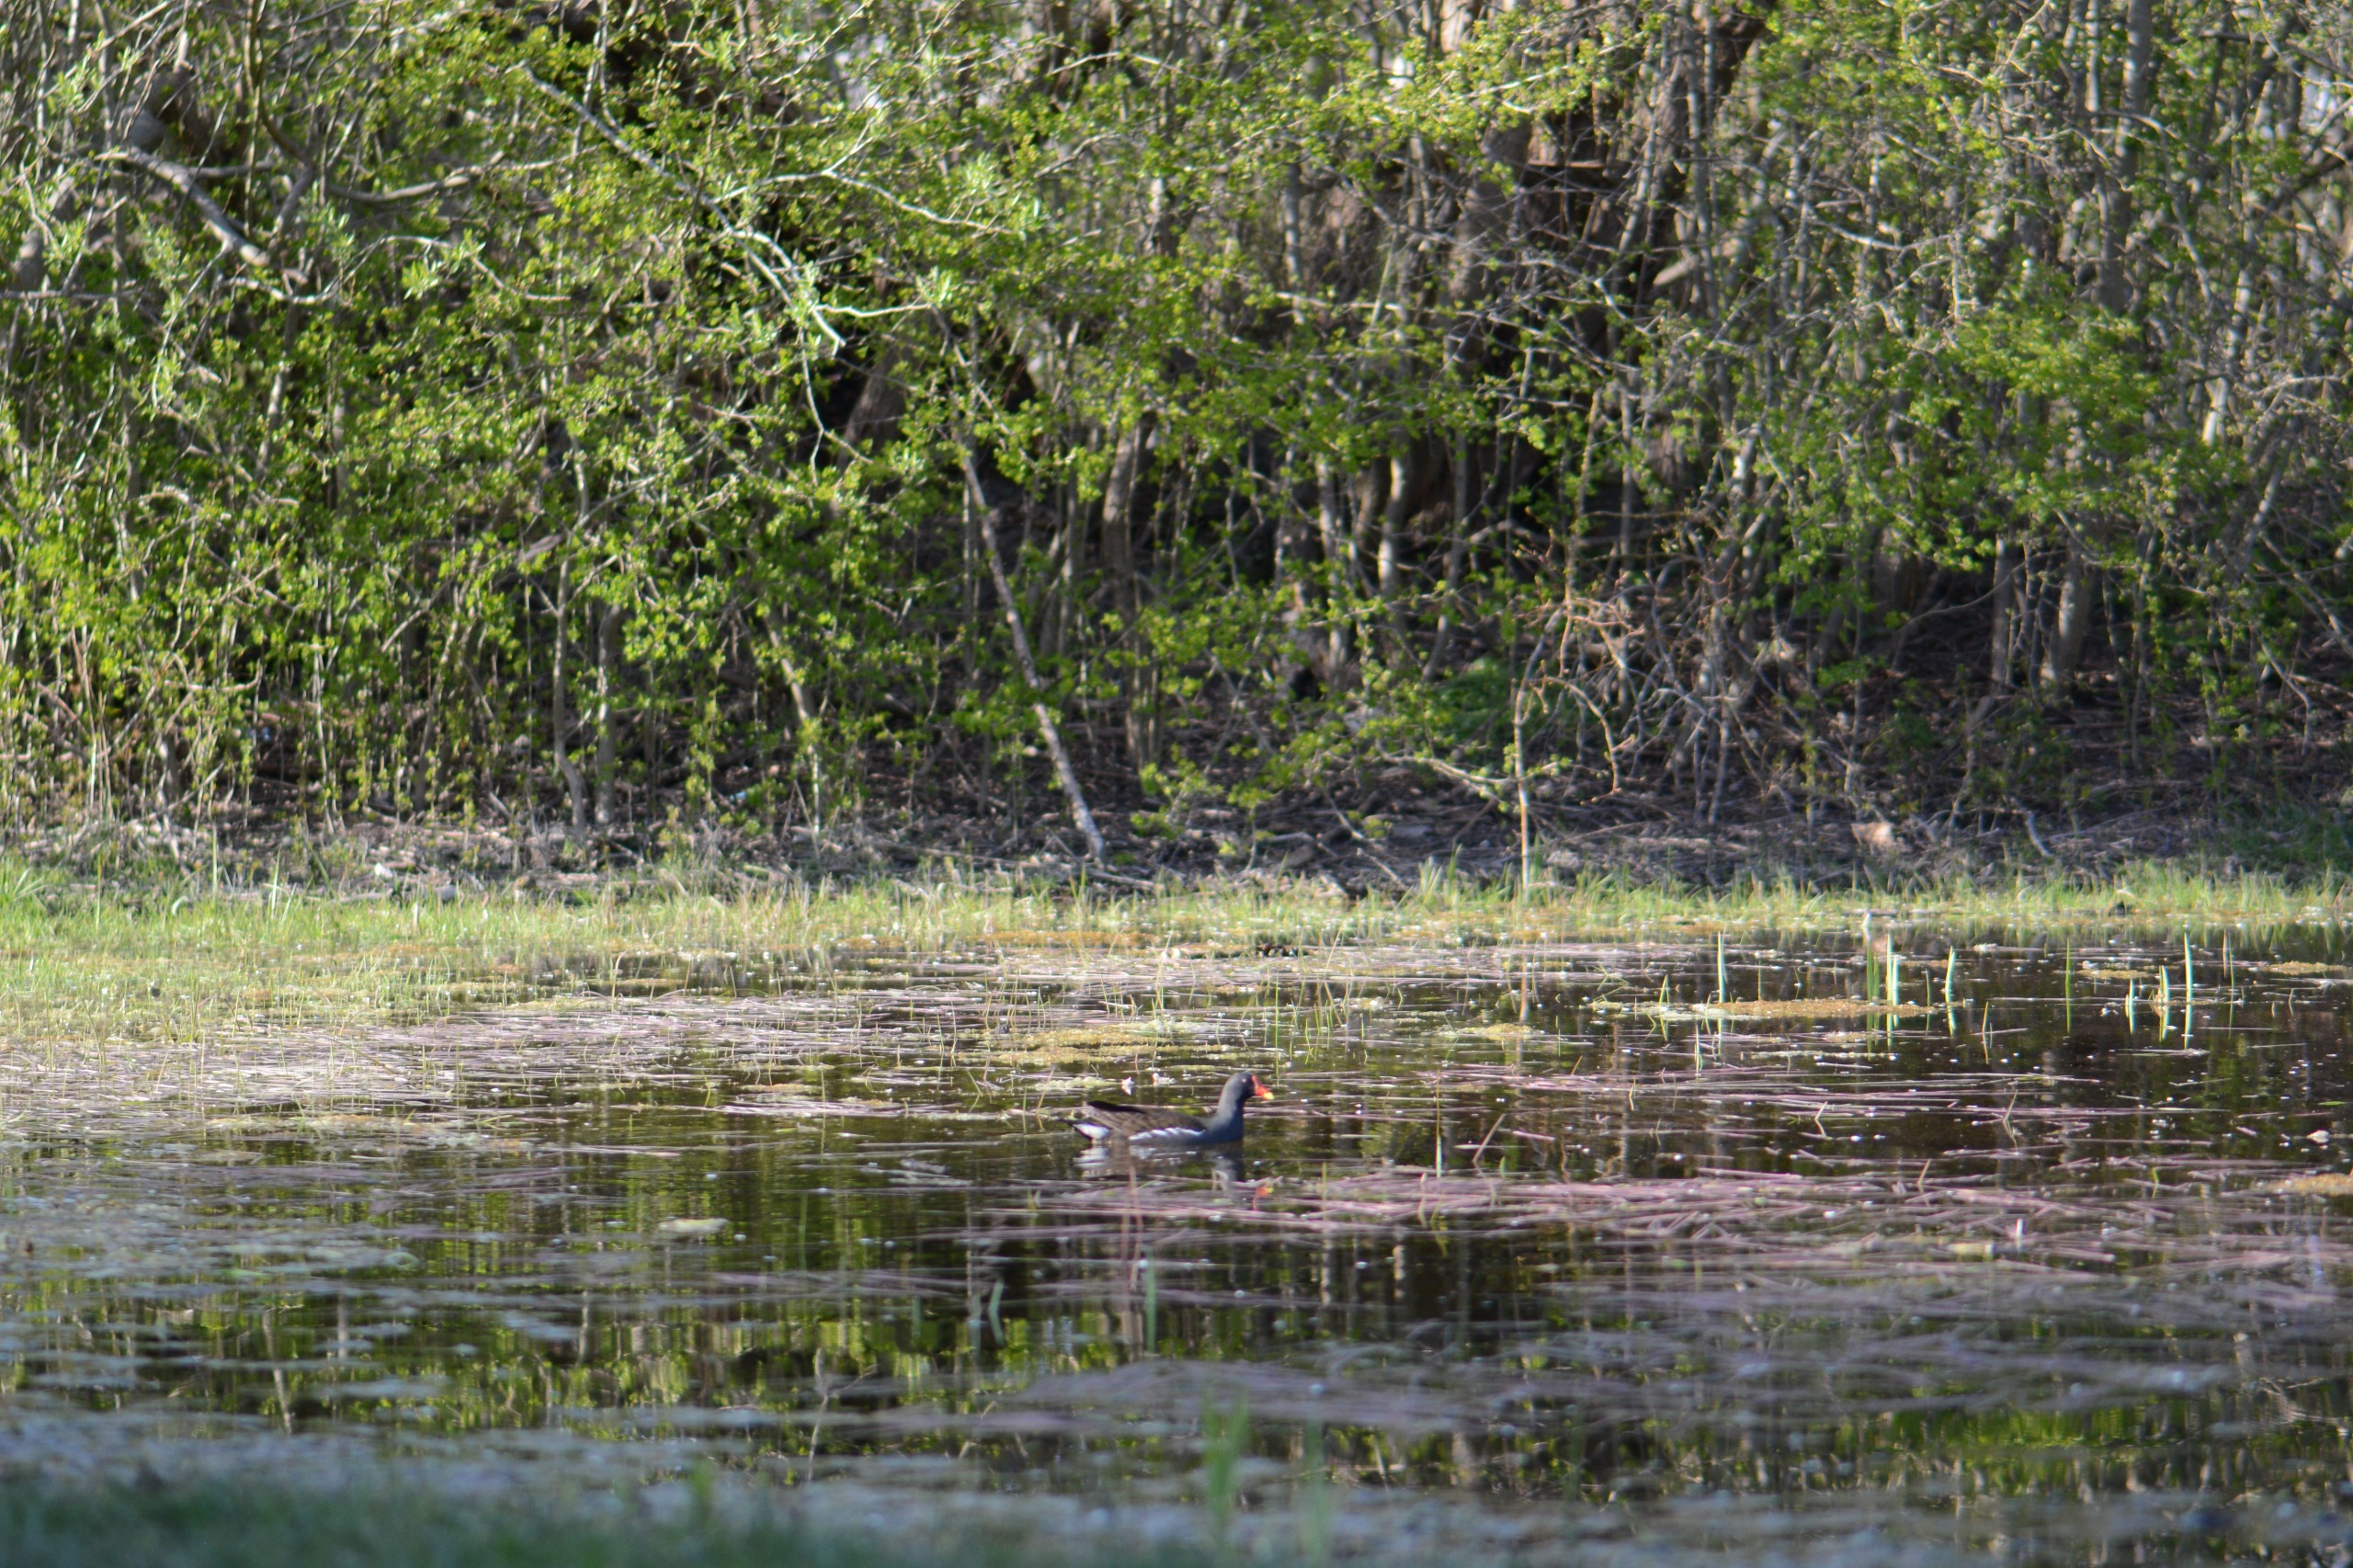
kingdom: Animalia
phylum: Chordata
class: Aves
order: Gruiformes
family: Rallidae
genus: Gallinula
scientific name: Gallinula chloropus
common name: Grønbenet rørhøne
